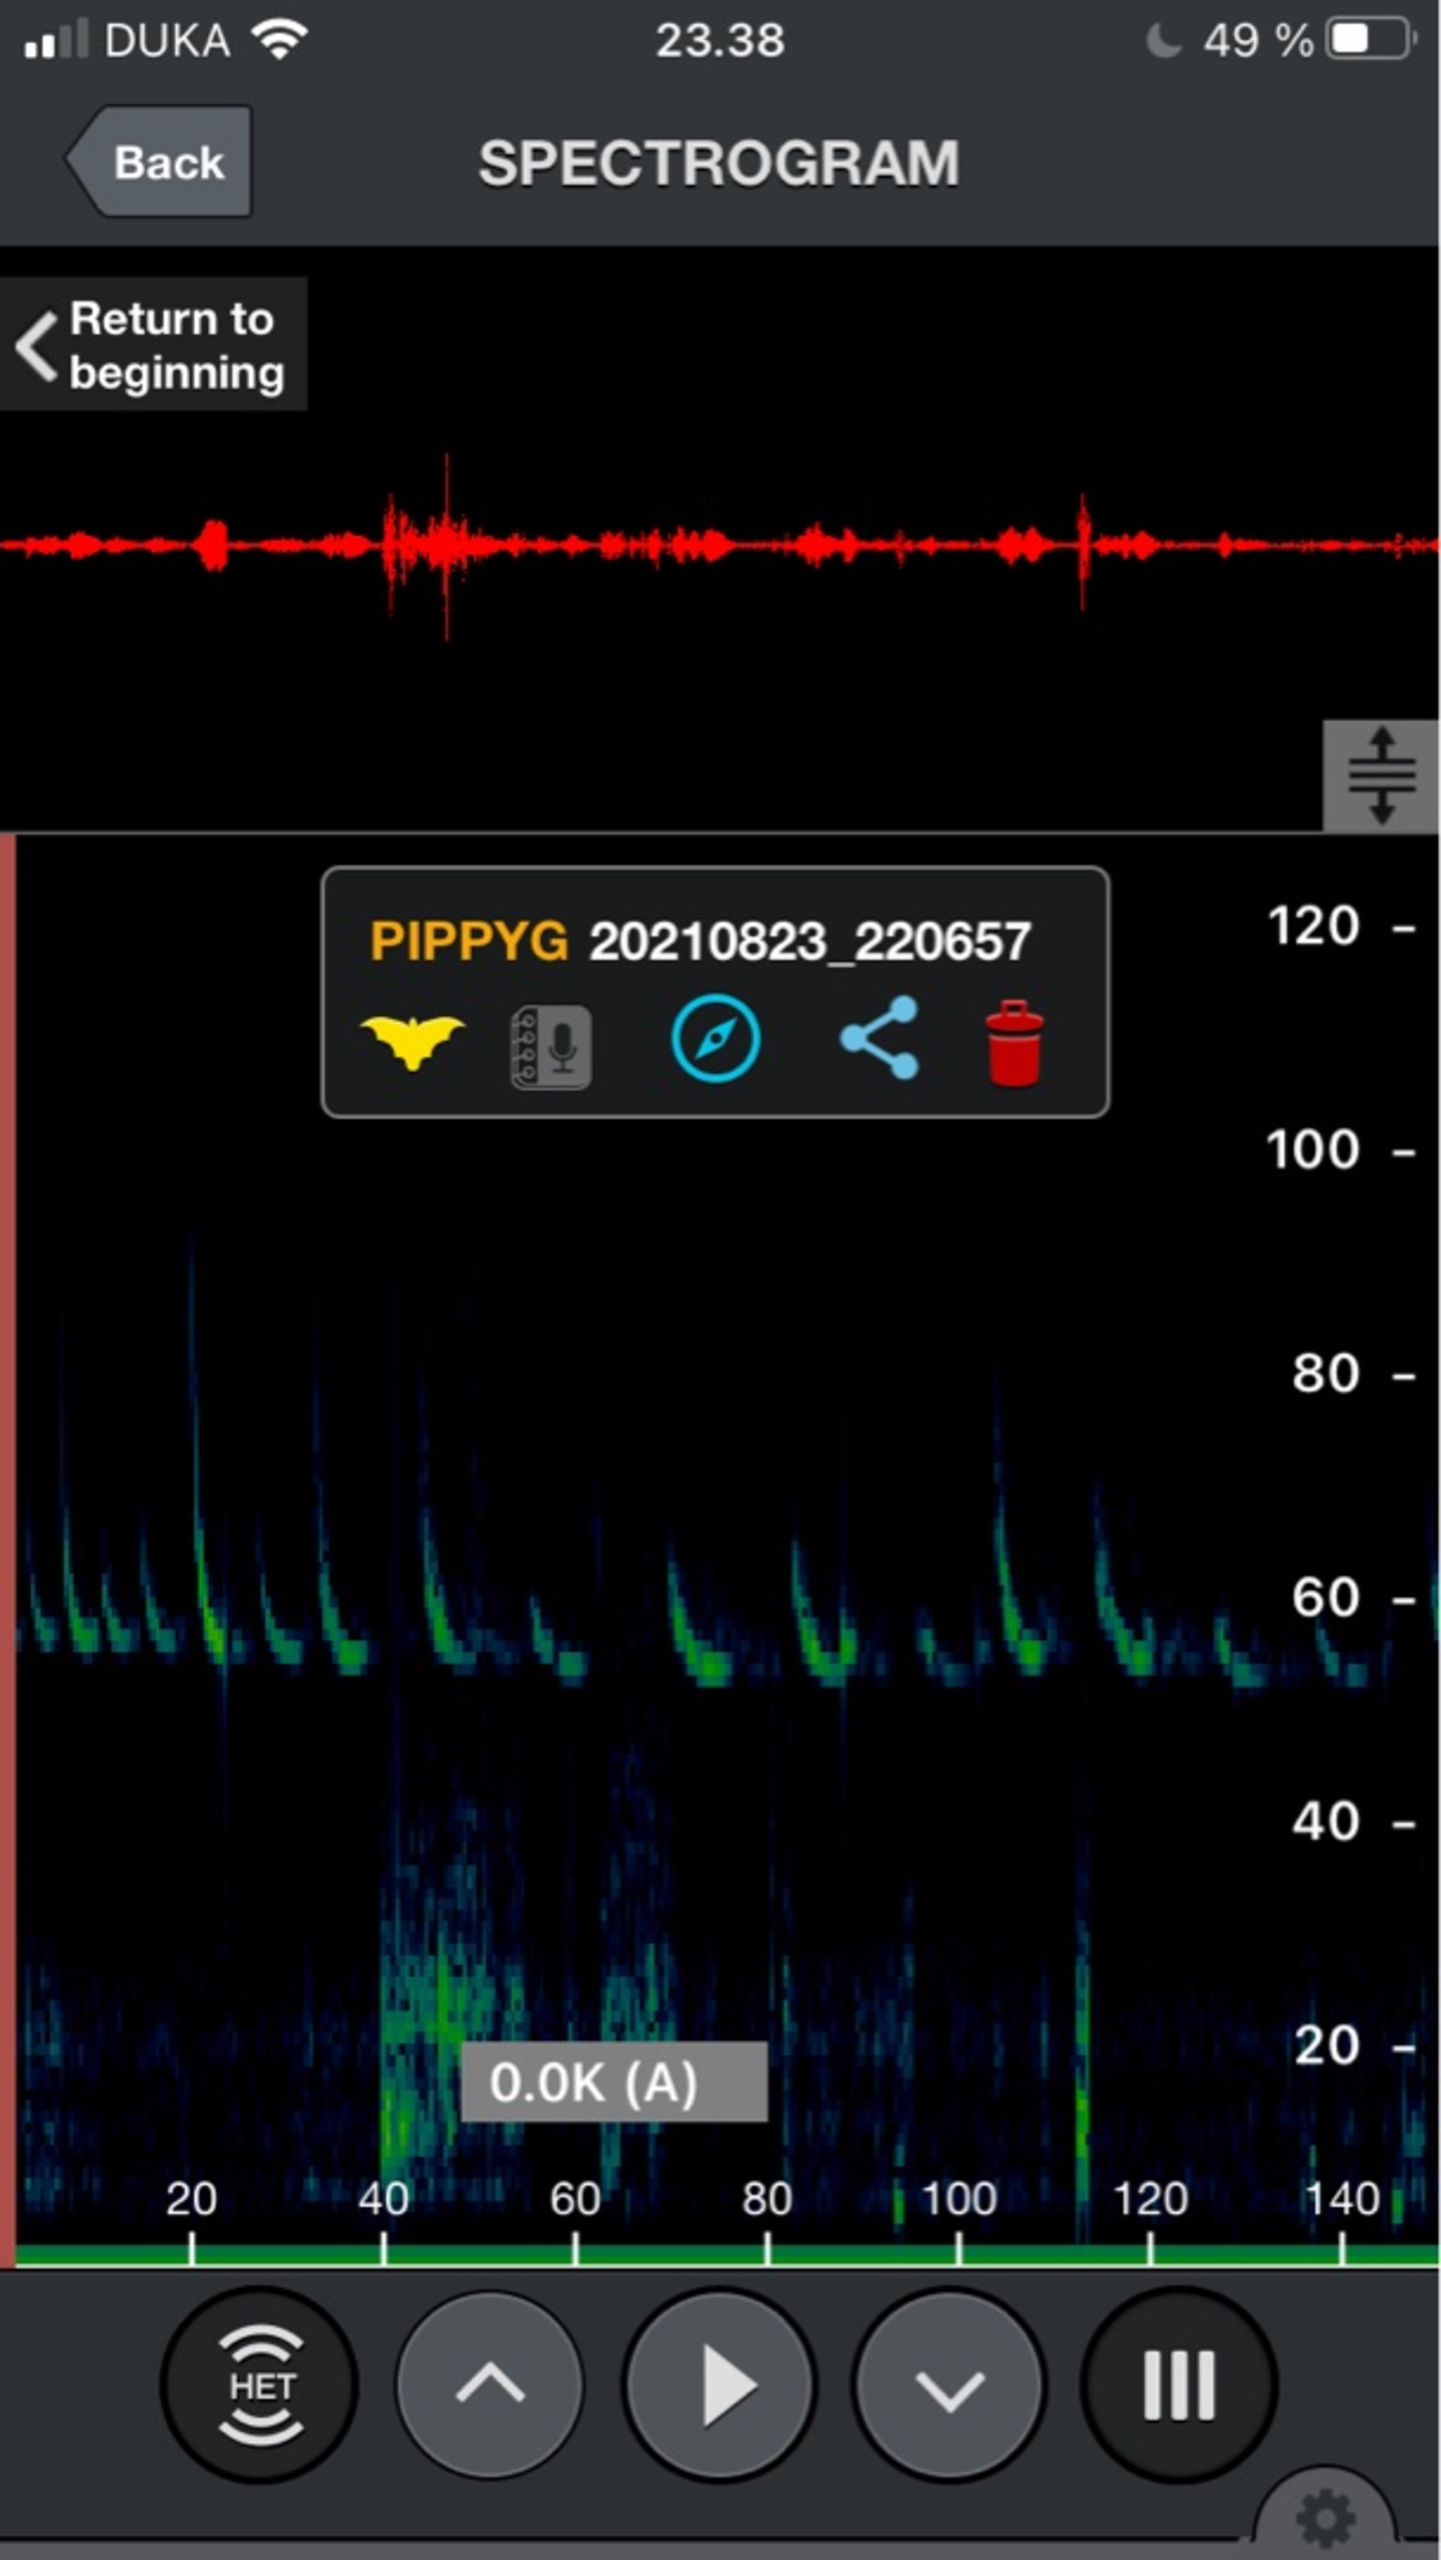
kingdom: Animalia
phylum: Chordata
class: Mammalia
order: Chiroptera
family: Vespertilionidae
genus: Pipistrellus
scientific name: Pipistrellus pygmaeus
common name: Dværgflagermus
